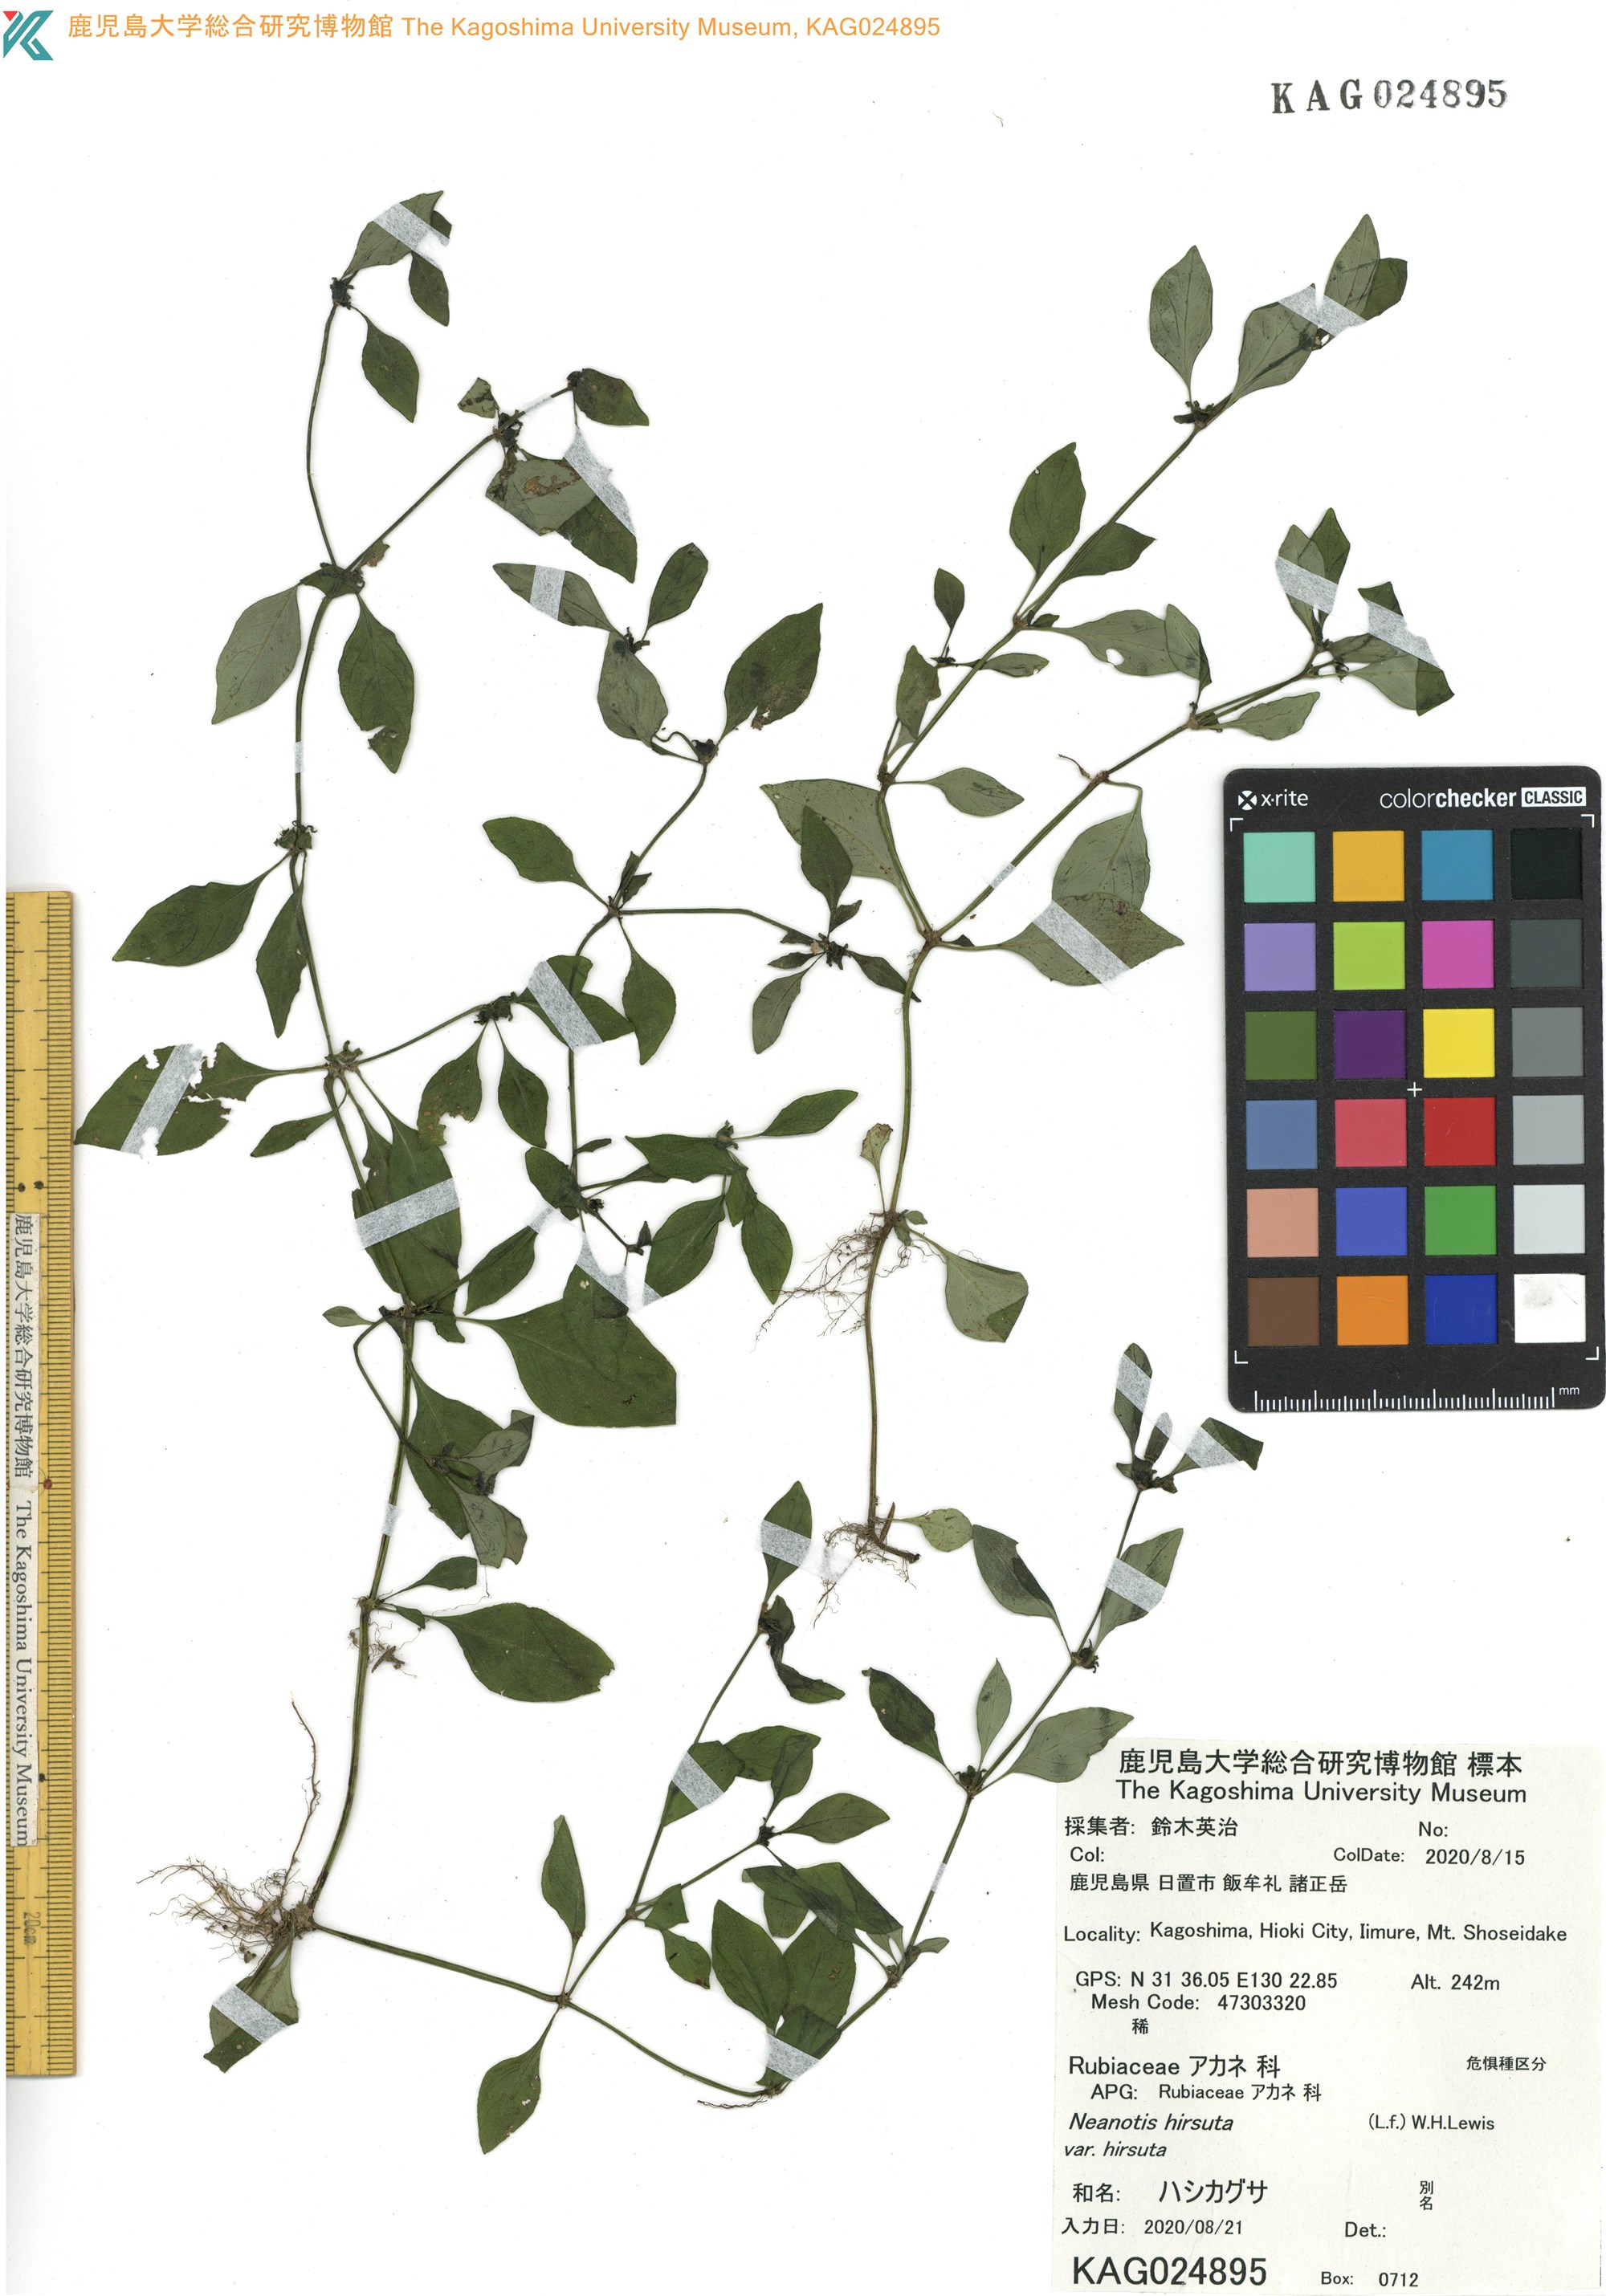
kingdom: Plantae
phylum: Tracheophyta
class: Magnoliopsida
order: Gentianales
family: Rubiaceae
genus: Neanotis
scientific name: Neanotis hirsuta
